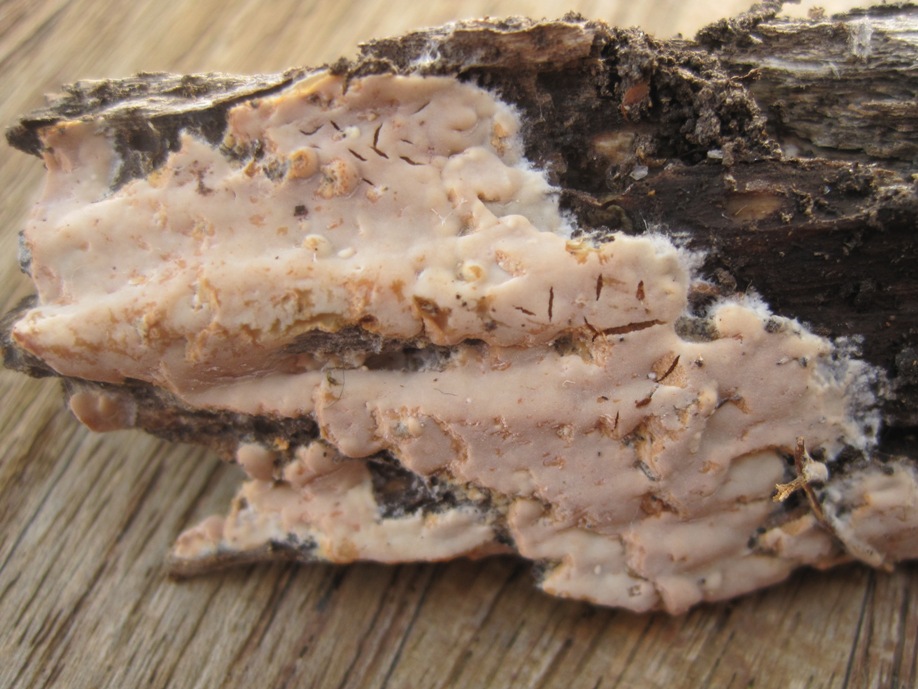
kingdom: Fungi
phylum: Basidiomycota
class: Agaricomycetes
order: Polyporales
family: Meripilaceae
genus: Rigidoporus
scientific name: Rigidoporus sanguinolentus
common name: blod-skorpeporesvamp
